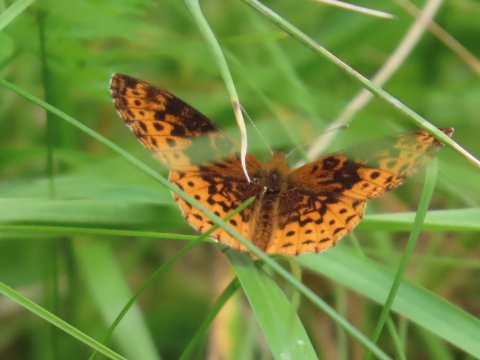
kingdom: Animalia
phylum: Arthropoda
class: Insecta
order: Lepidoptera
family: Nymphalidae
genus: Clossiana
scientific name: Clossiana toddi
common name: Meadow Fritillary
